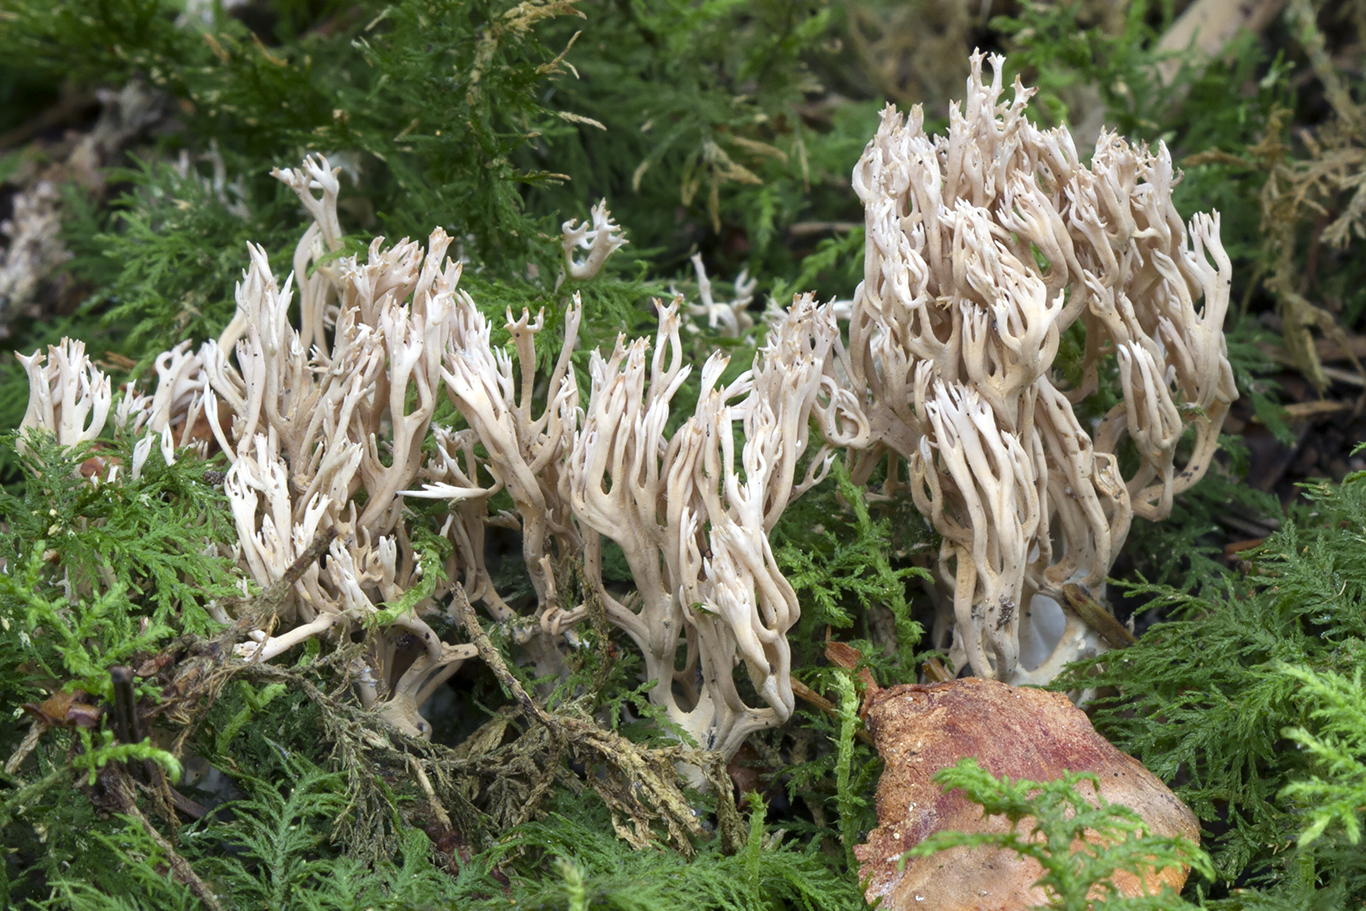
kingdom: Fungi
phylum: Basidiomycota
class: Agaricomycetes
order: Gomphales
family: Gomphaceae
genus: Ramaria
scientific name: Ramaria gracilis
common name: anis-koralsvamp
